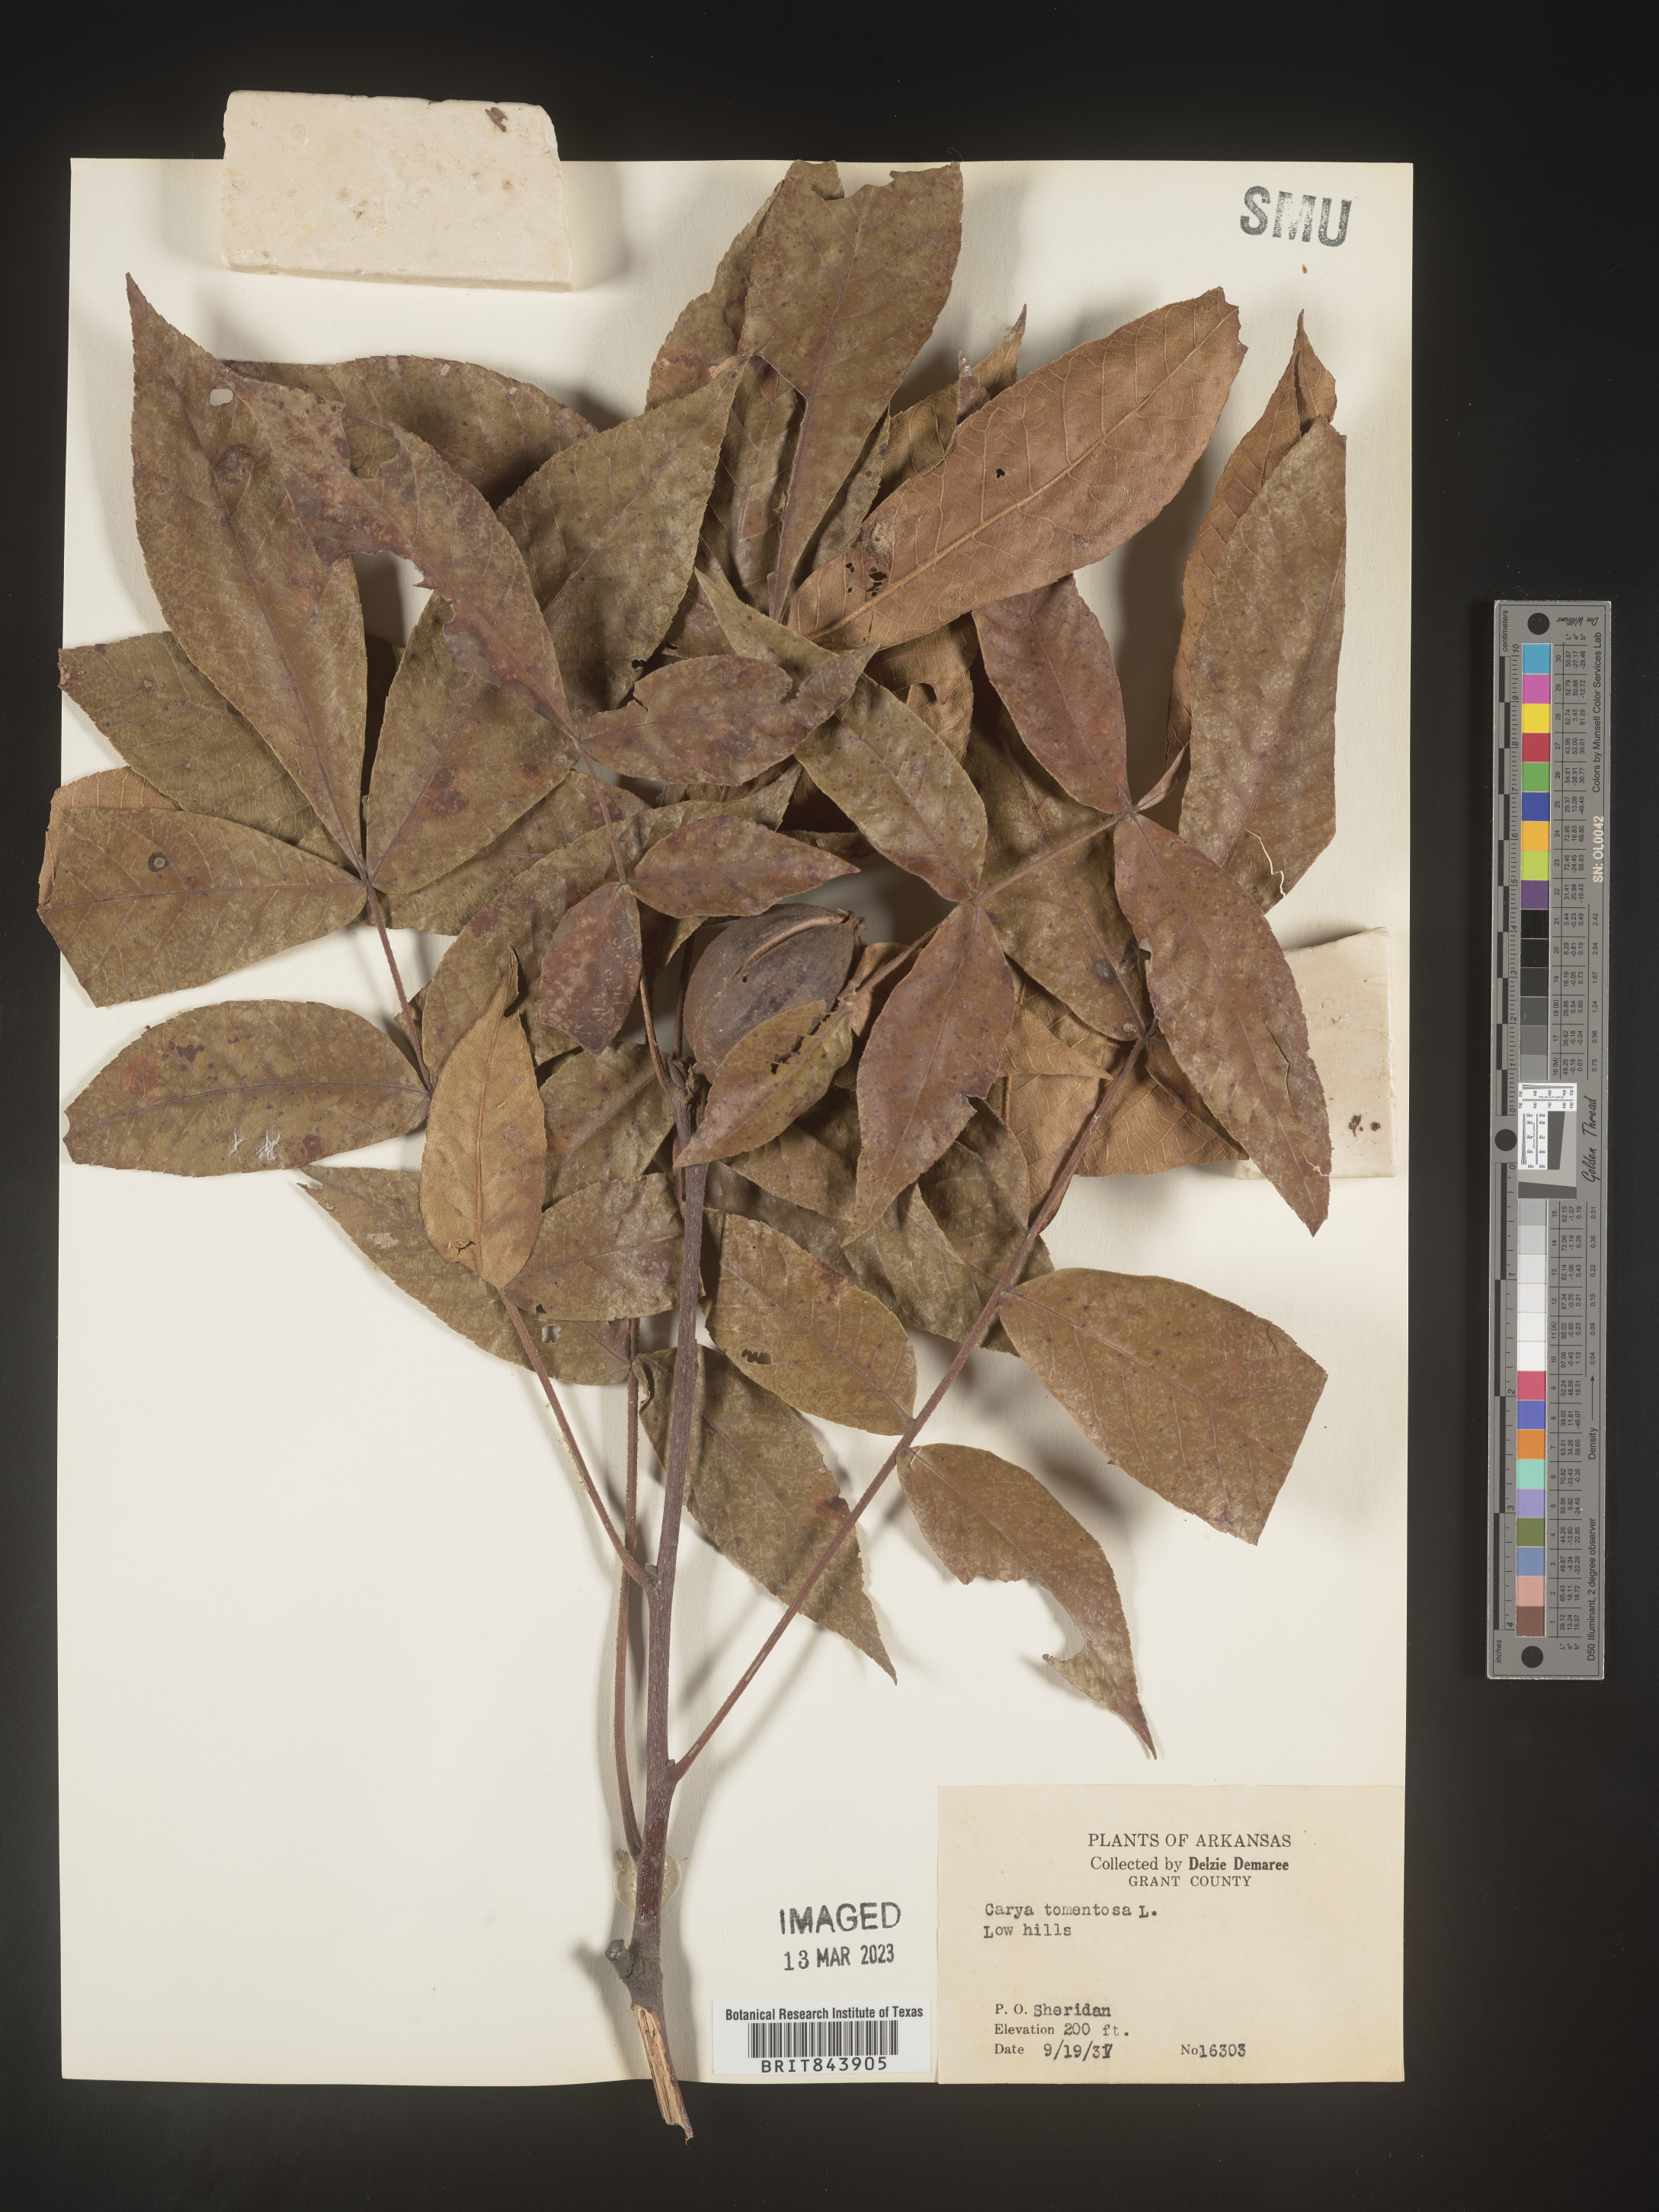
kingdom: Plantae
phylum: Tracheophyta
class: Magnoliopsida
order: Fagales
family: Juglandaceae
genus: Carya
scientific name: Carya alba
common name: Mockernut hickory
